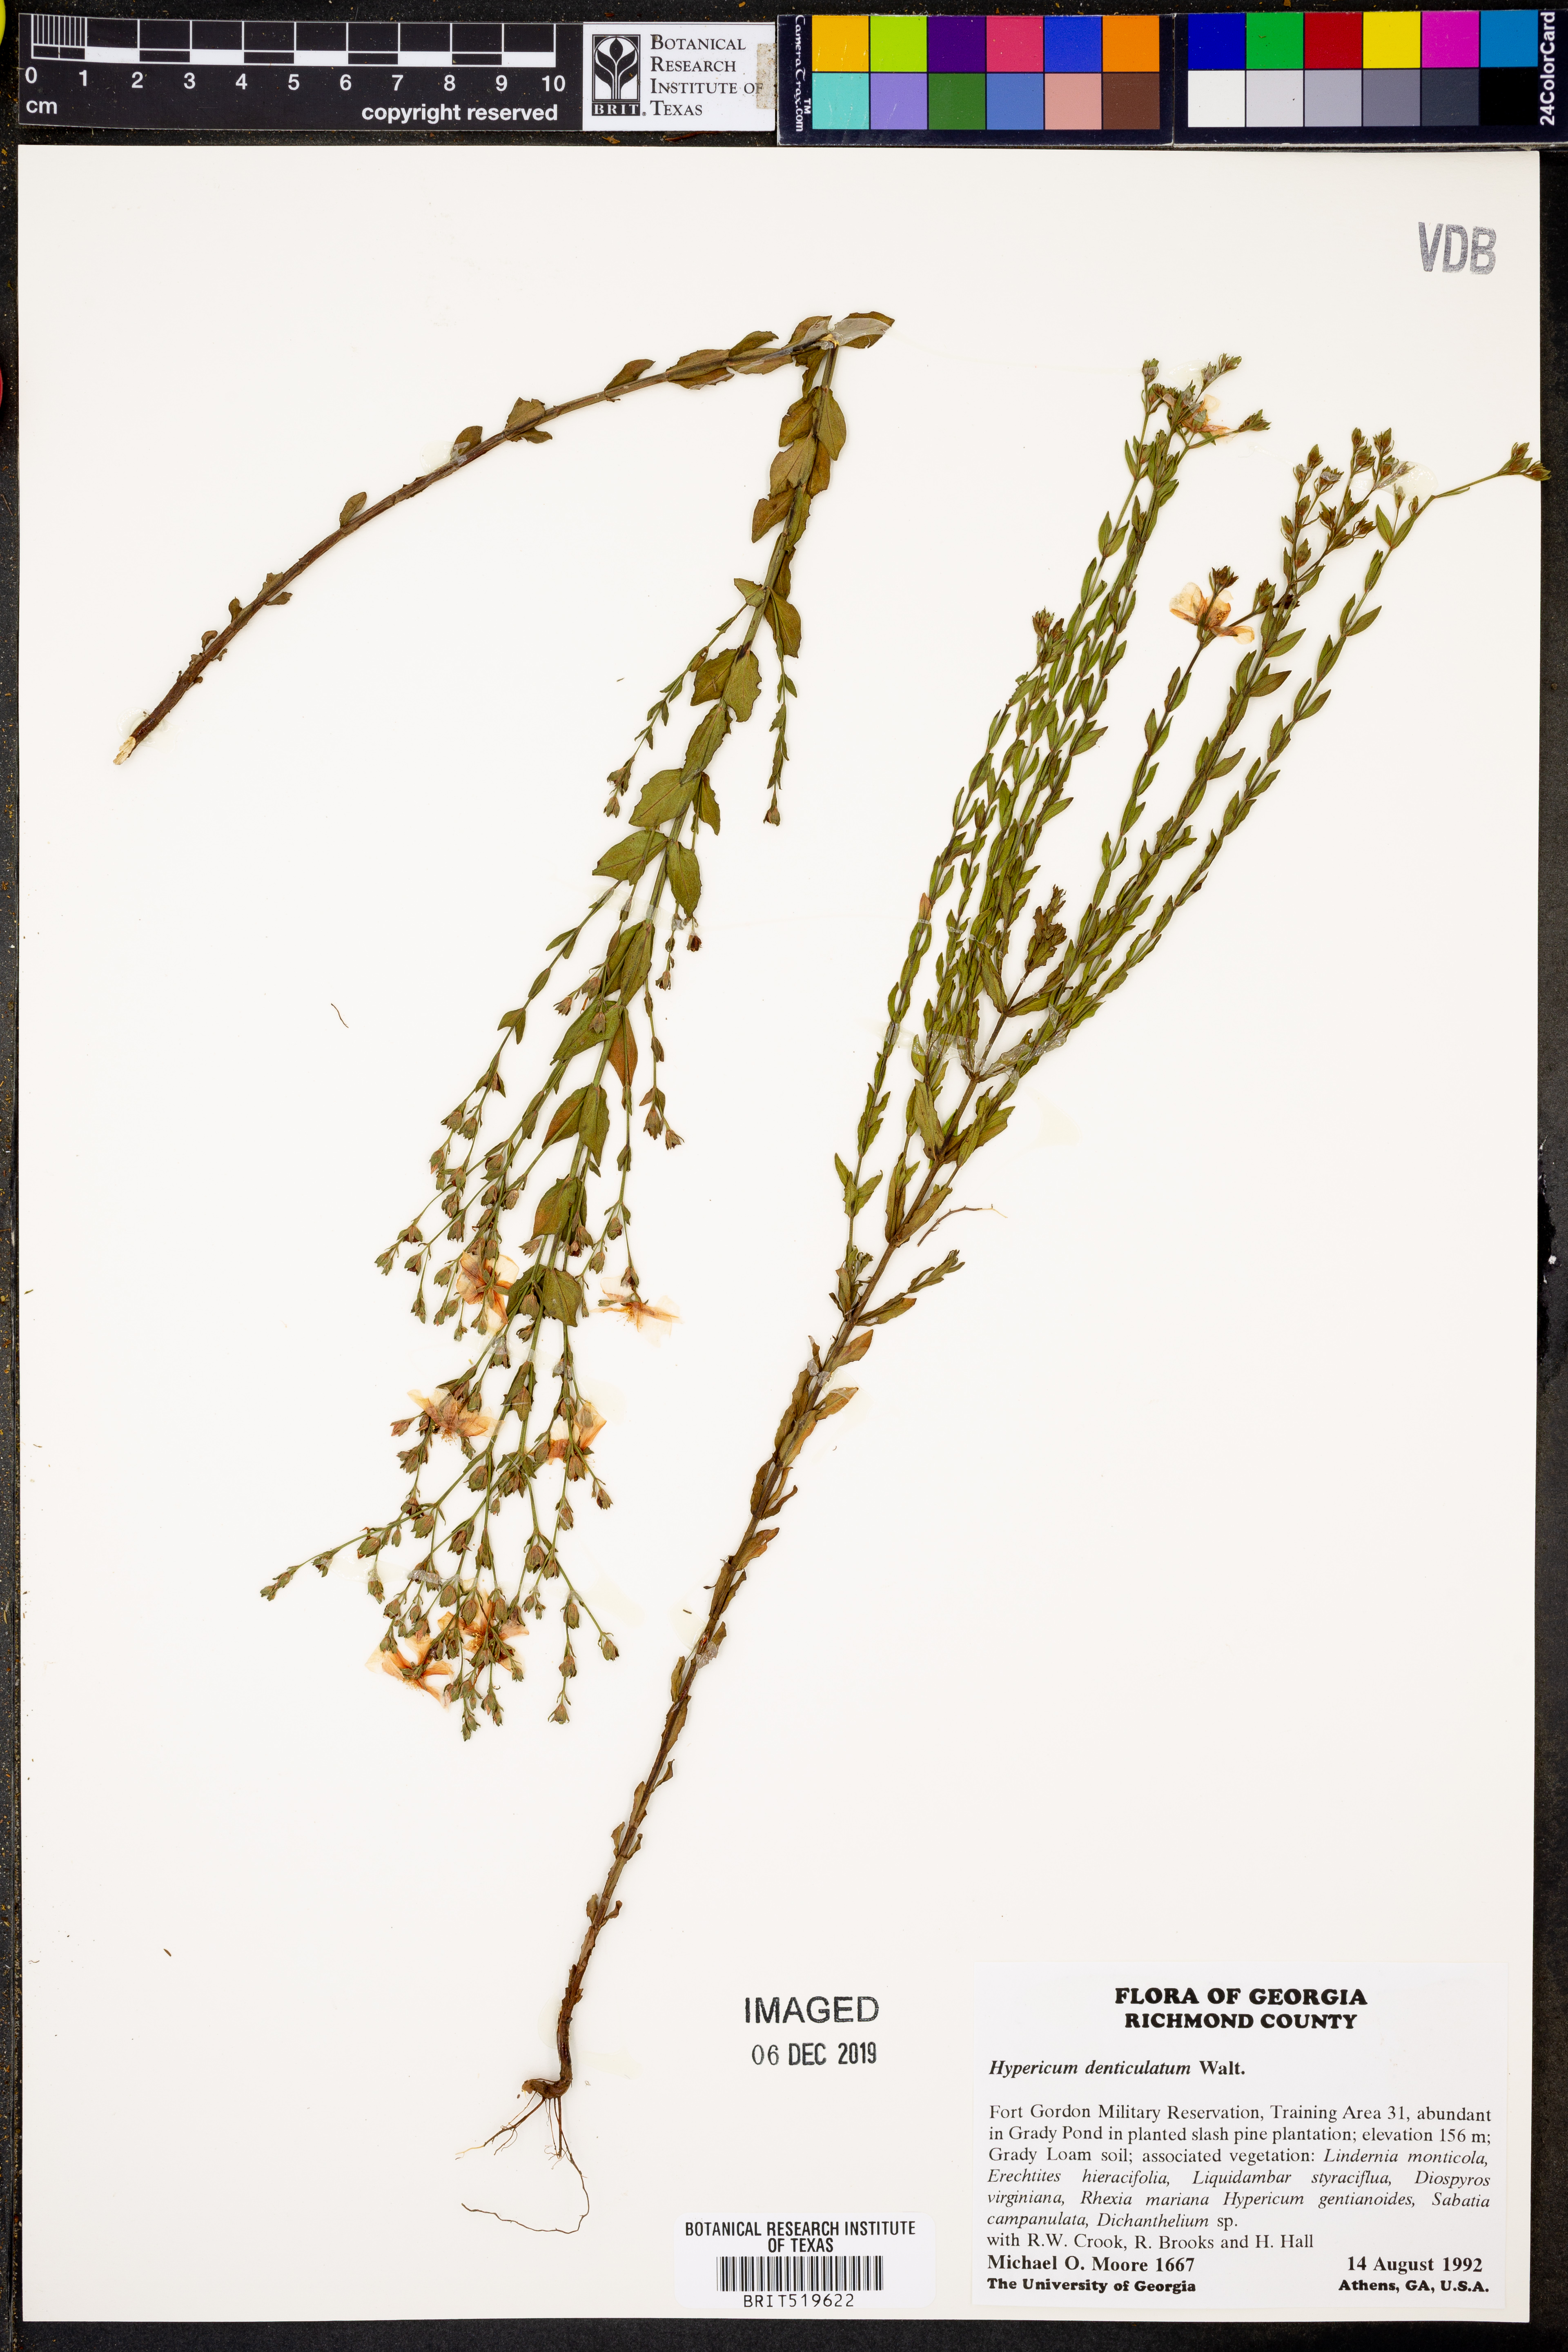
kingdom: Plantae
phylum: Tracheophyta
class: Magnoliopsida
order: Malpighiales
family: Hypericaceae
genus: Hypericum
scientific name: Hypericum denticulatum
